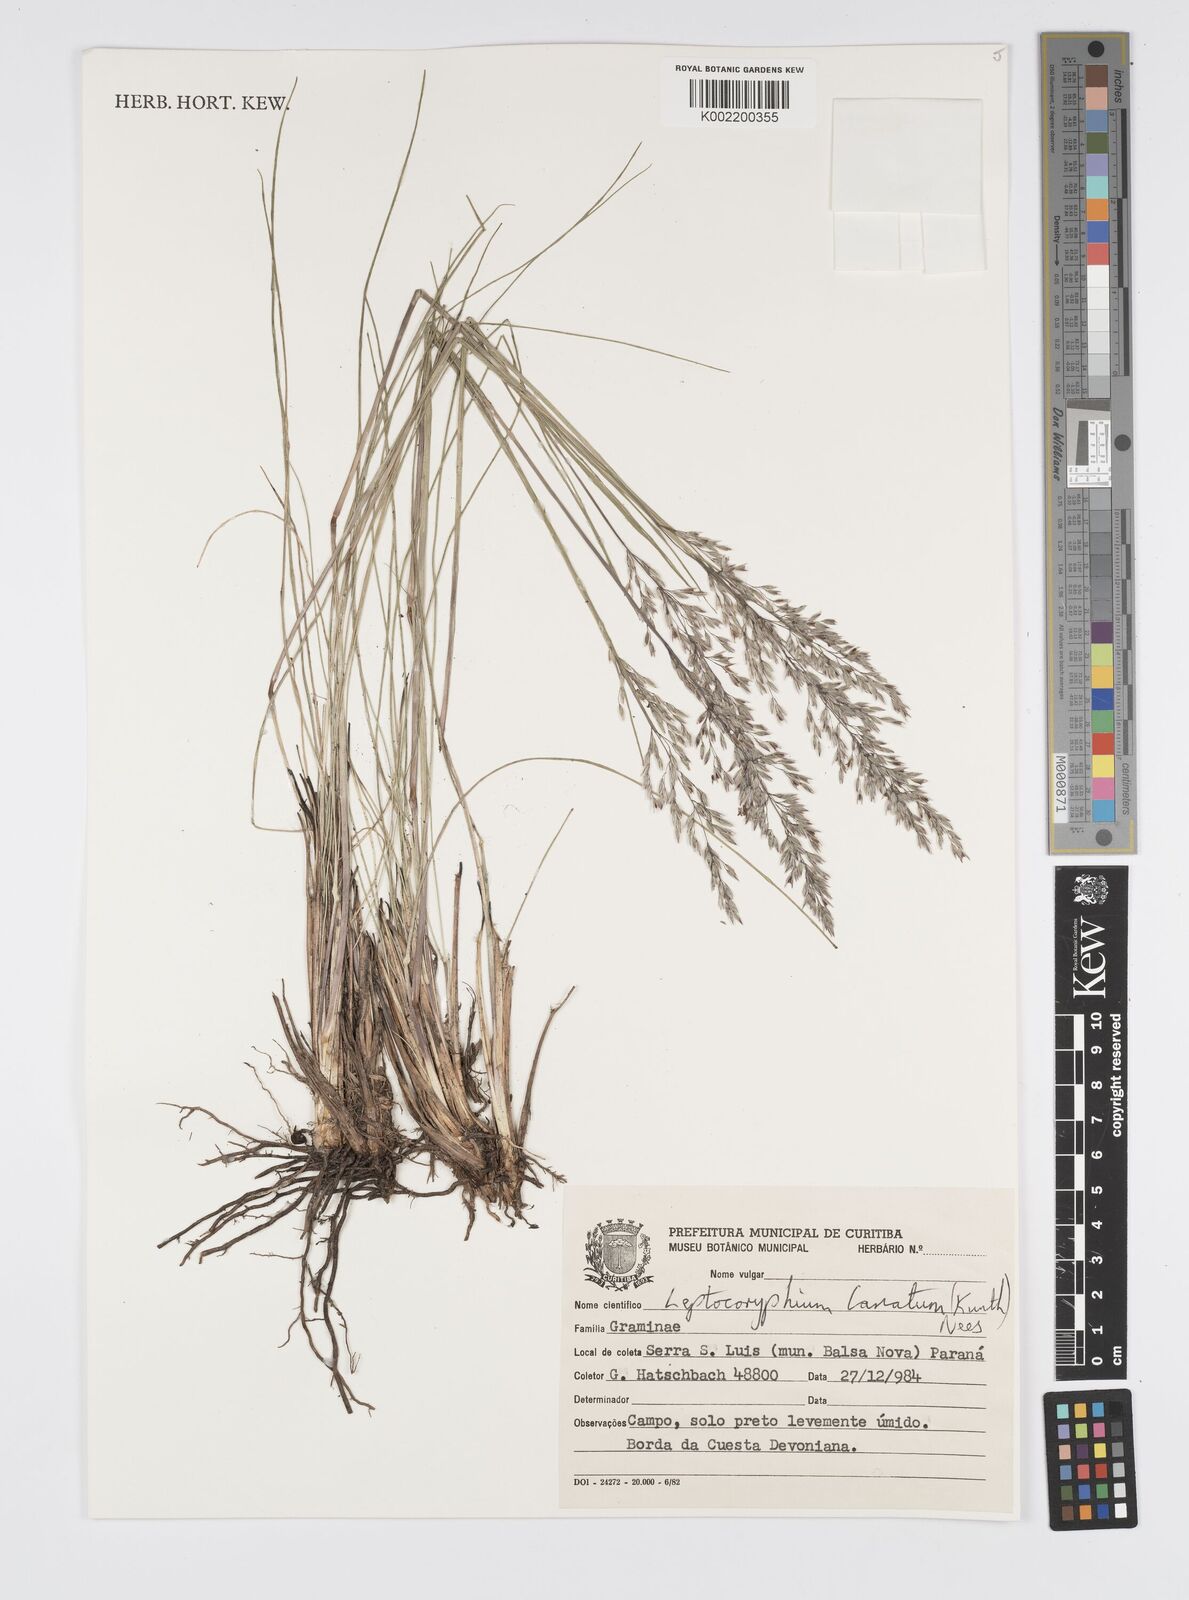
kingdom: Plantae
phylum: Tracheophyta
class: Liliopsida
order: Poales
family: Poaceae
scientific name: Poaceae
